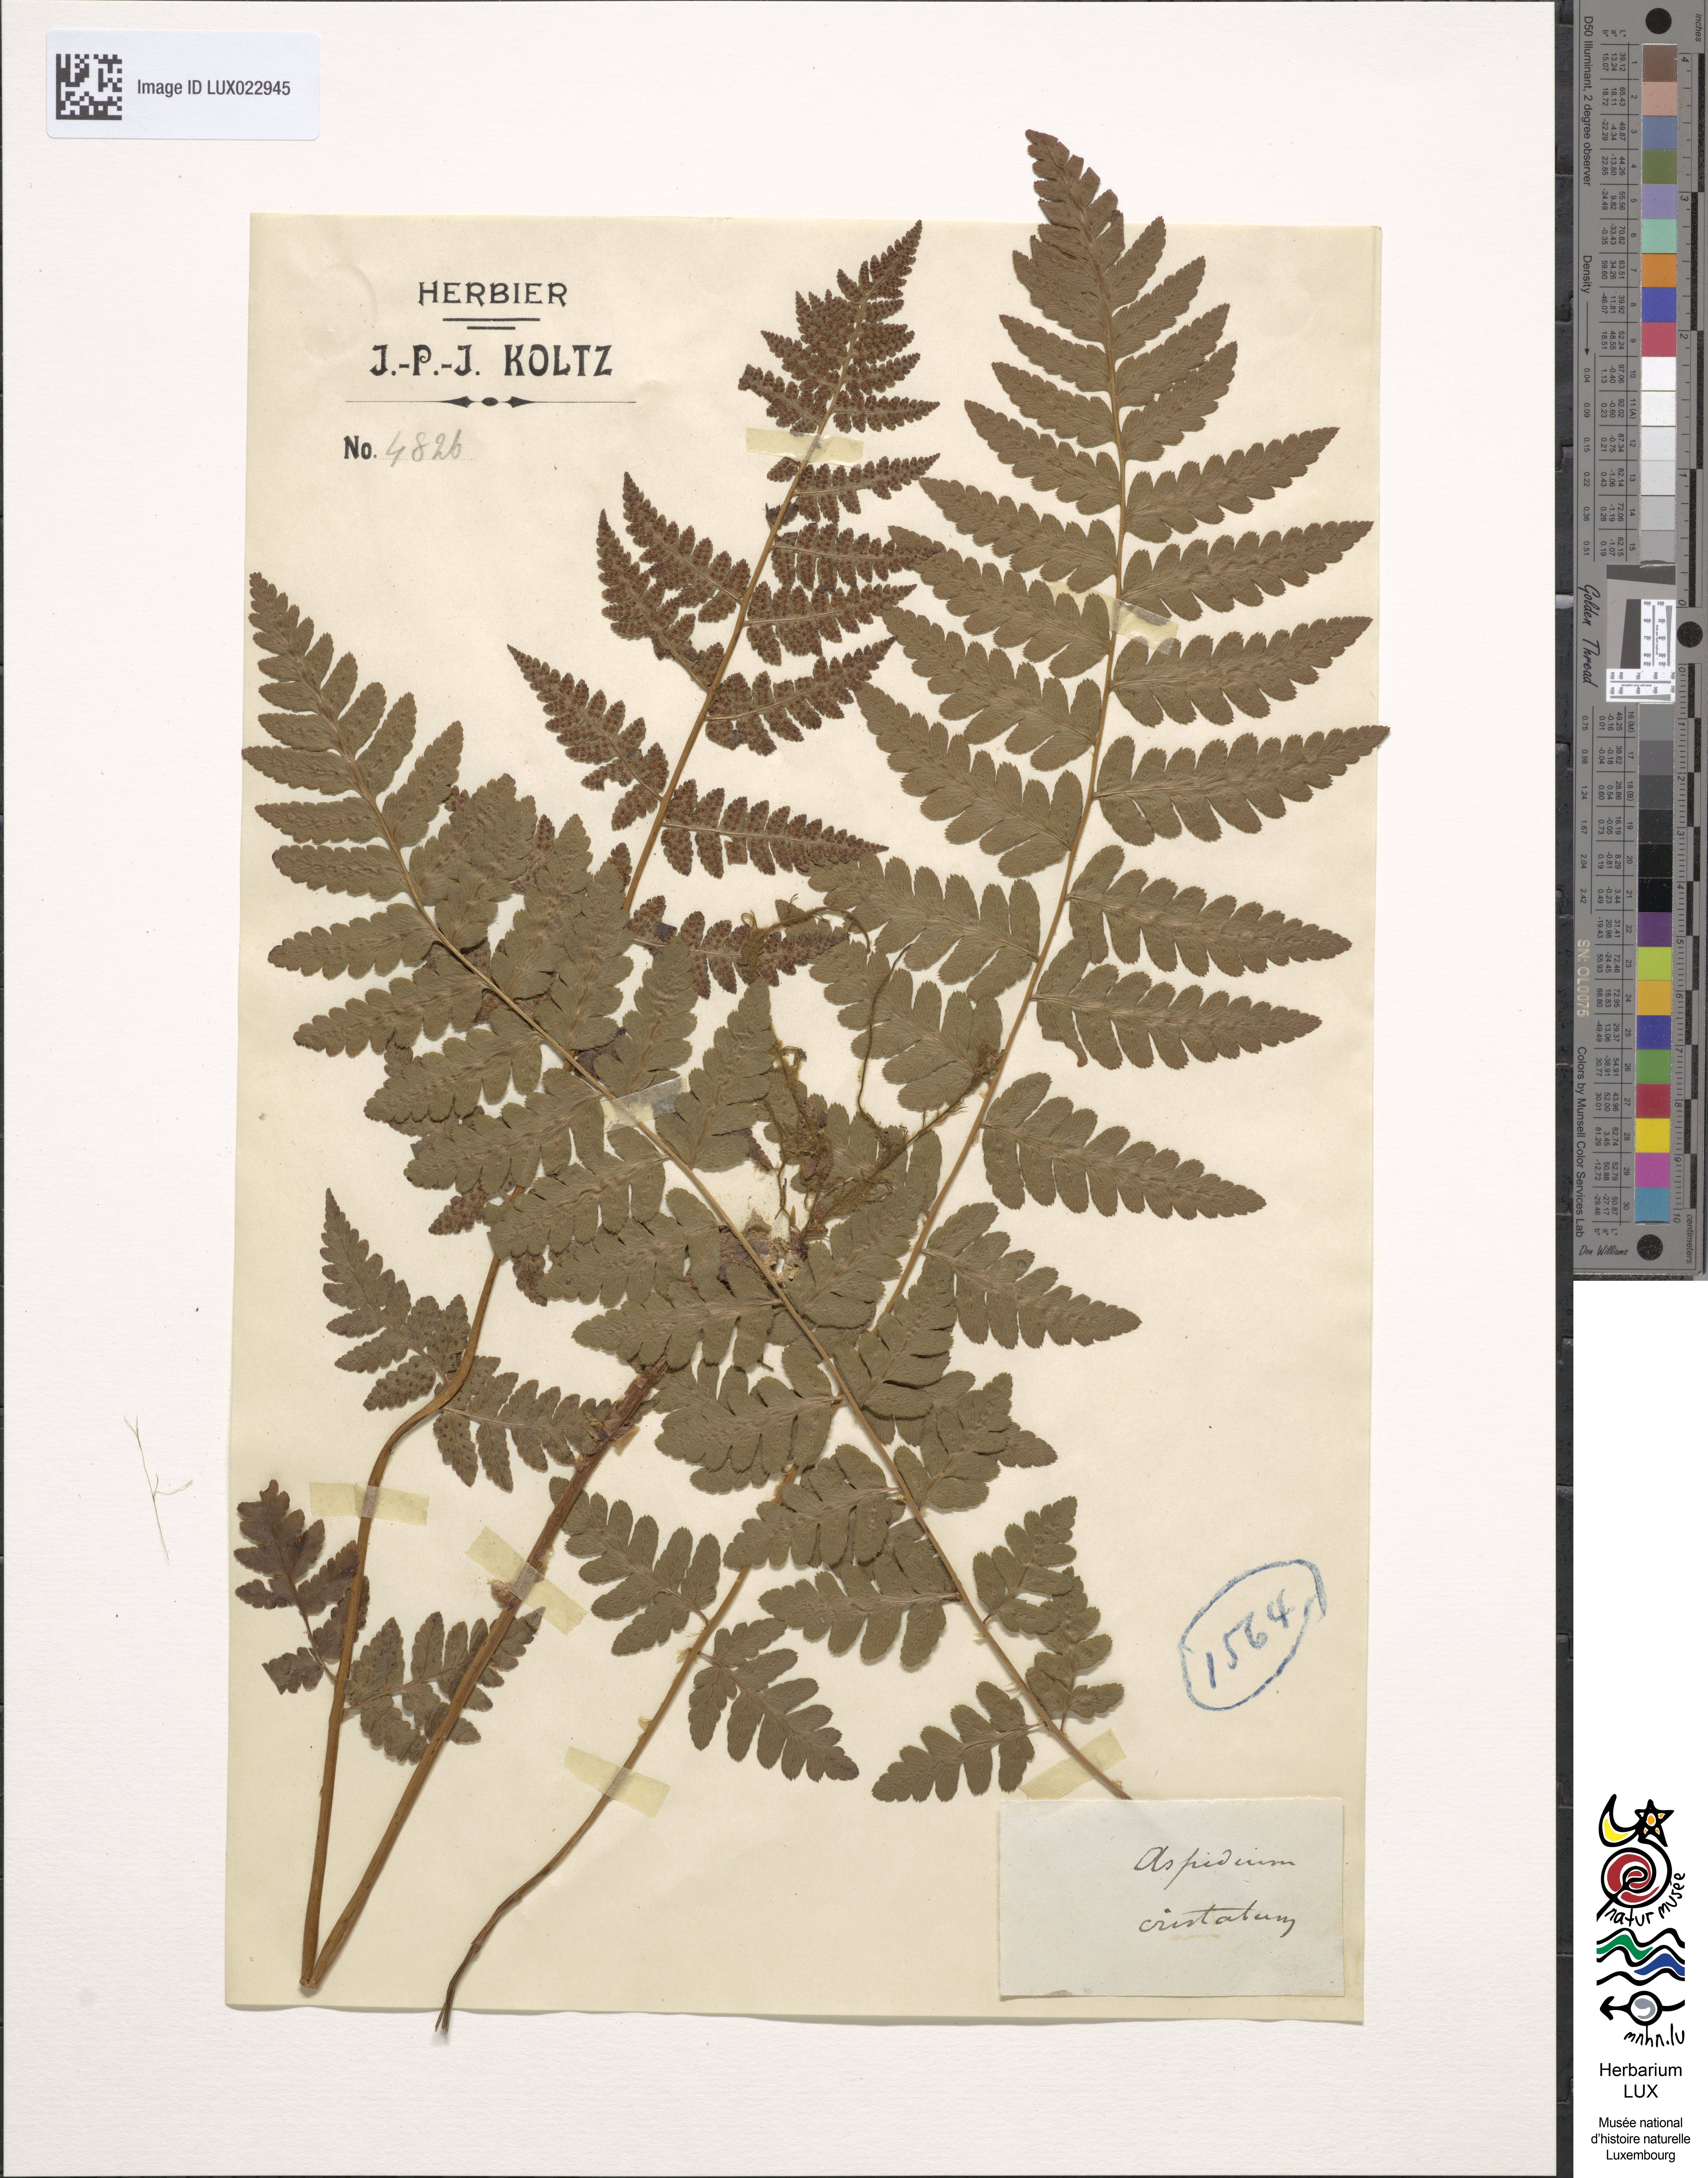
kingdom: Plantae
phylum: Tracheophyta
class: Polypodiopsida
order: Polypodiales
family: Dryopteridaceae
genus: Dryopteris
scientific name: Dryopteris cristata
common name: Crested wood fern
